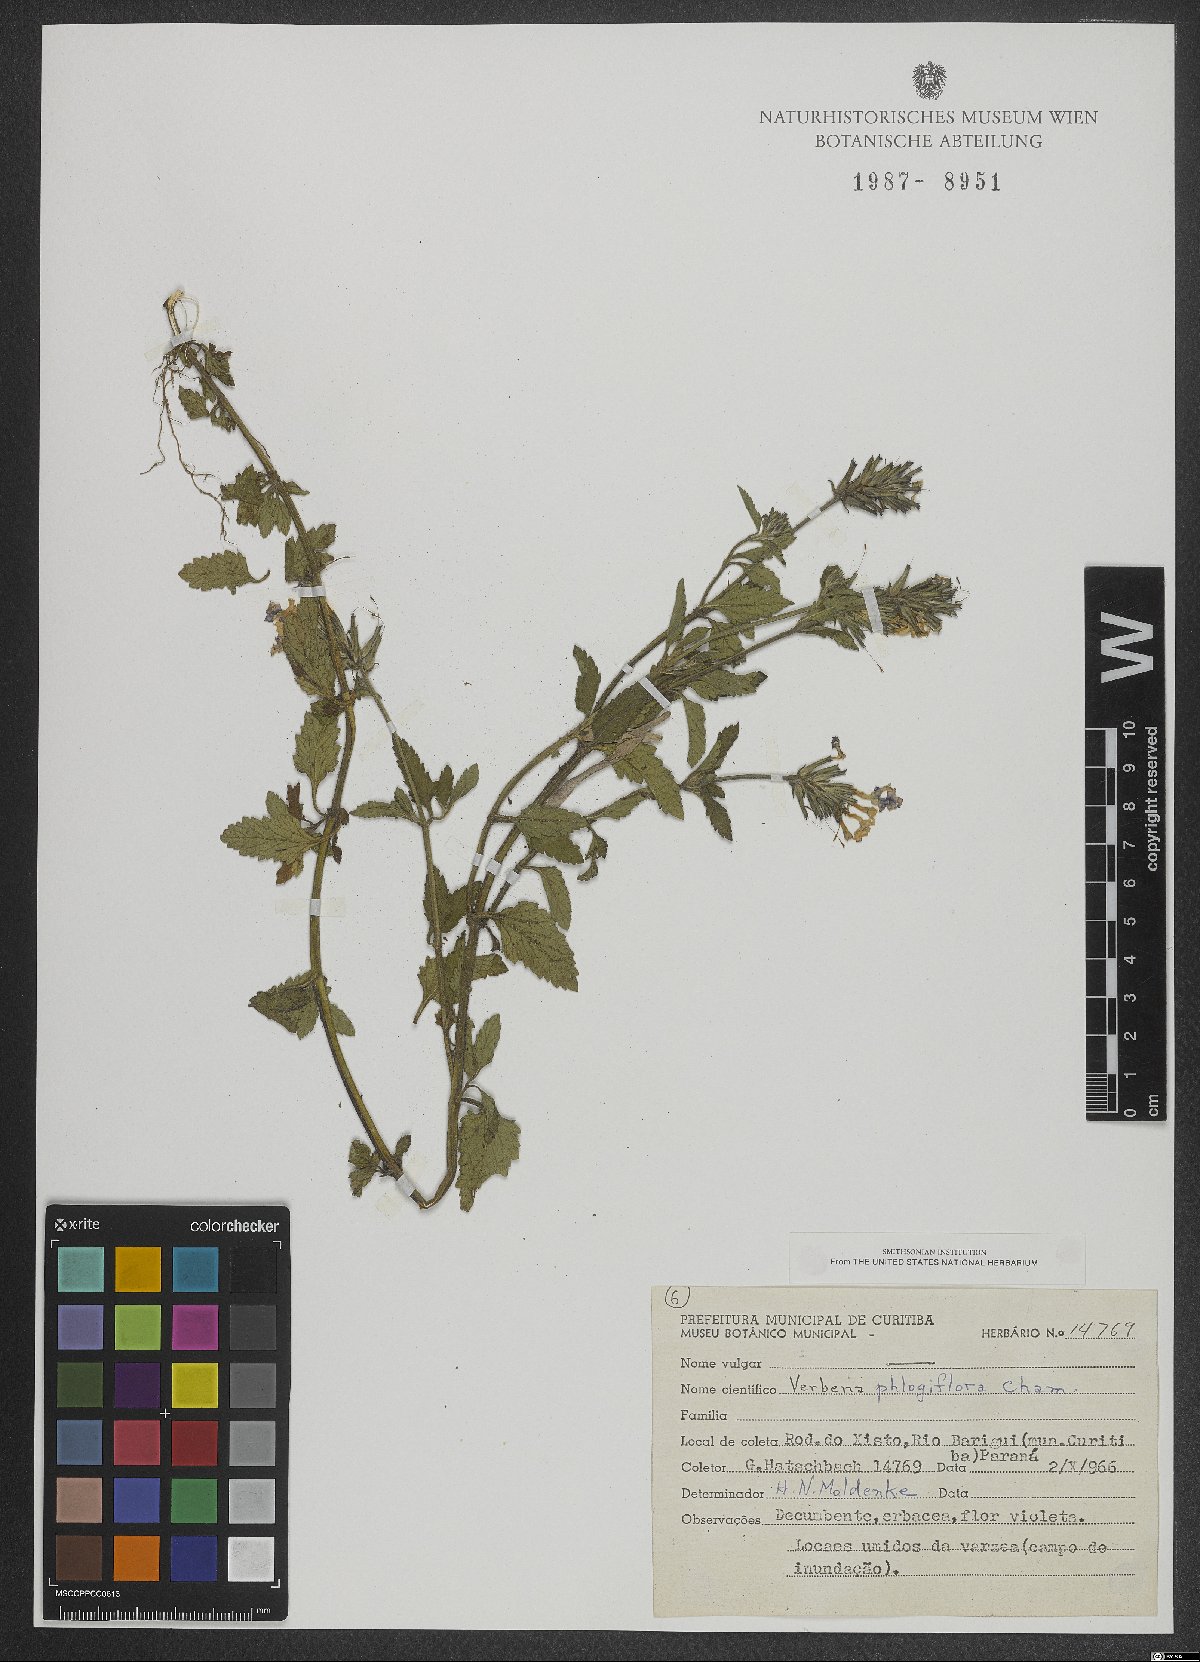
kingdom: Plantae
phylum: Tracheophyta
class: Magnoliopsida
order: Lamiales
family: Verbenaceae
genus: Verbena
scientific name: Verbena phlogiflora
